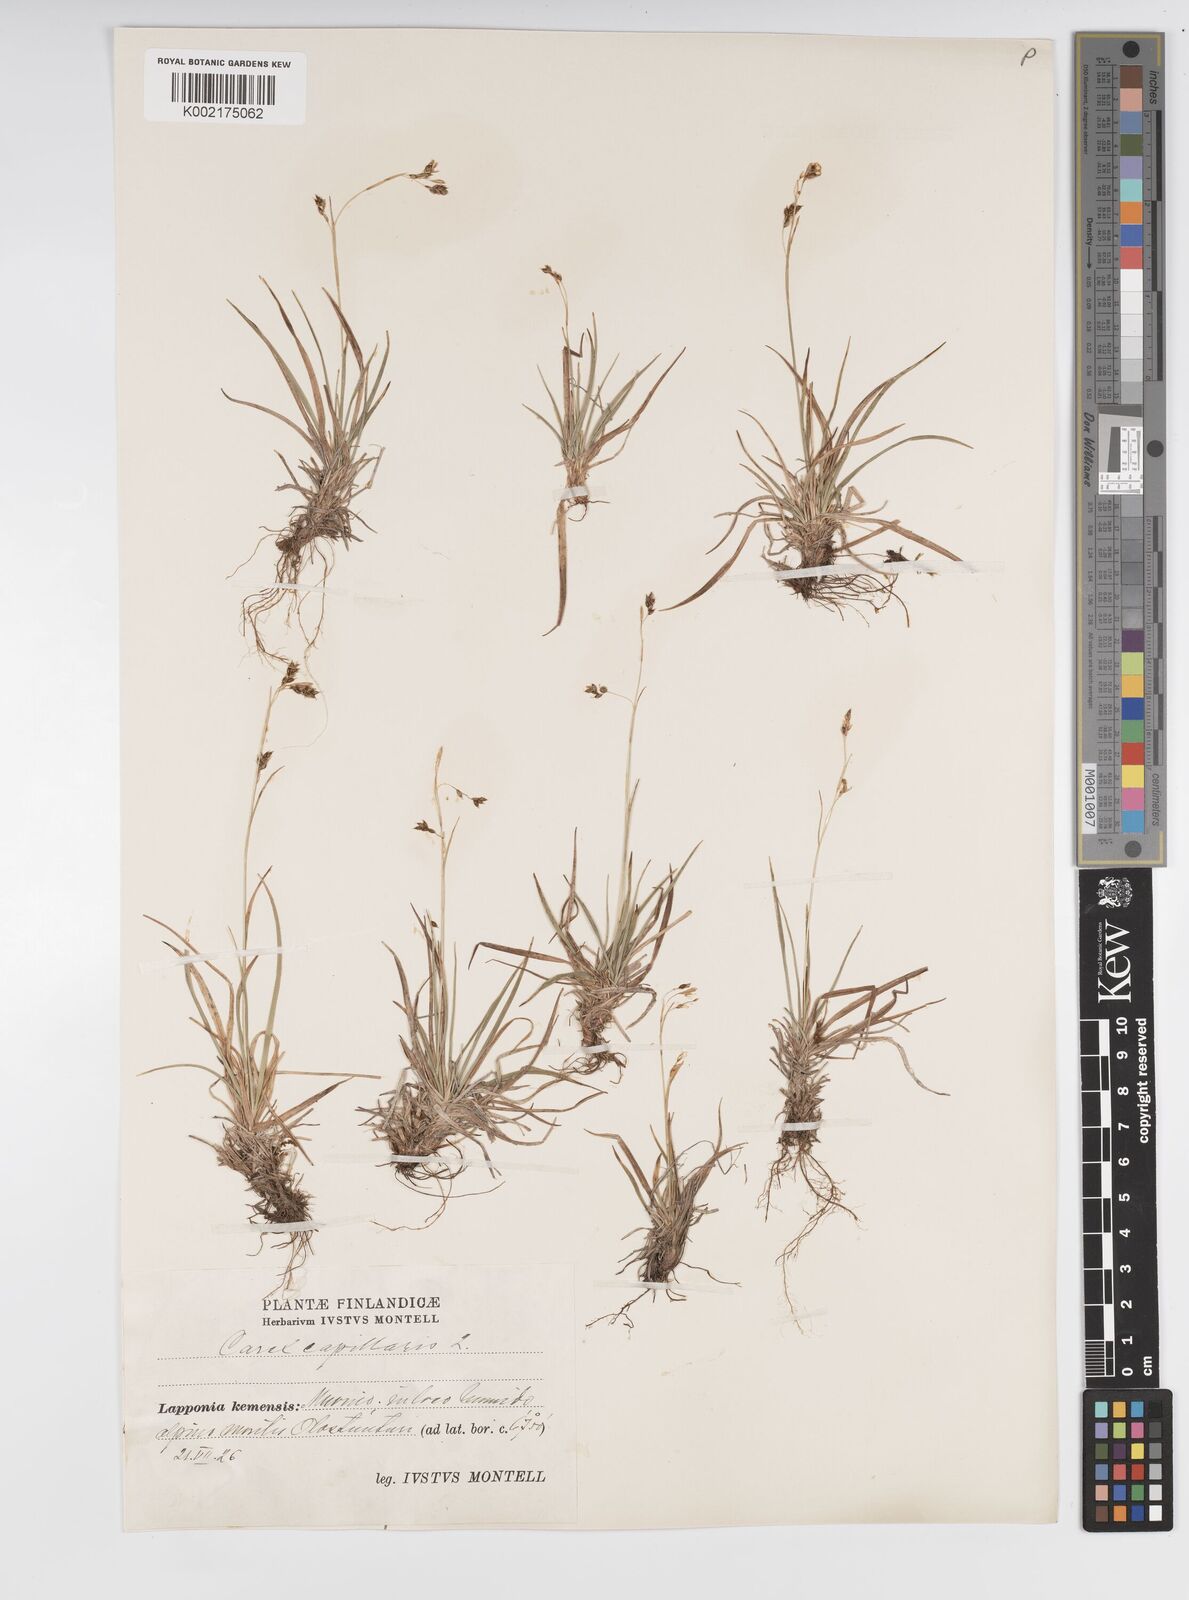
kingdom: Plantae
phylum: Tracheophyta
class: Liliopsida
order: Poales
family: Cyperaceae
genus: Carex
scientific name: Carex capillaris
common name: Hair sedge
